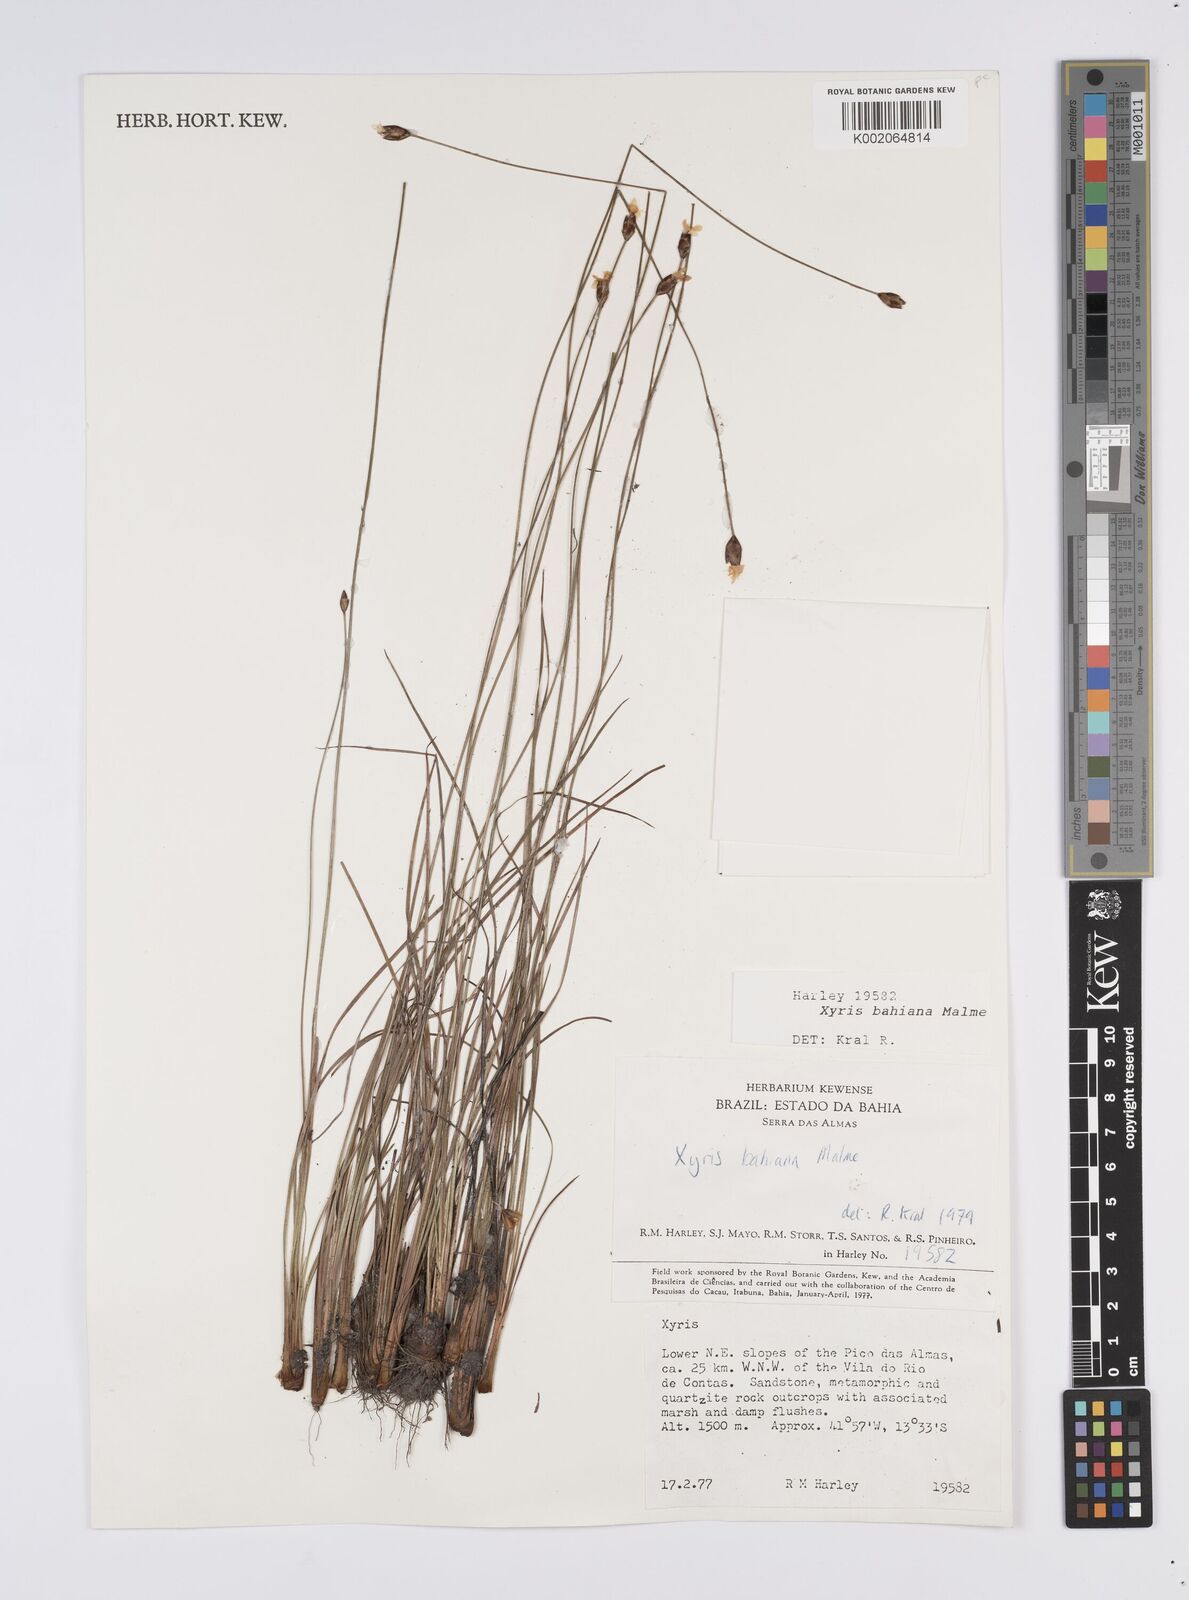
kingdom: Plantae
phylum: Tracheophyta
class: Liliopsida
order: Poales
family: Xyridaceae
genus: Xyris
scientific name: Xyris bahiana
